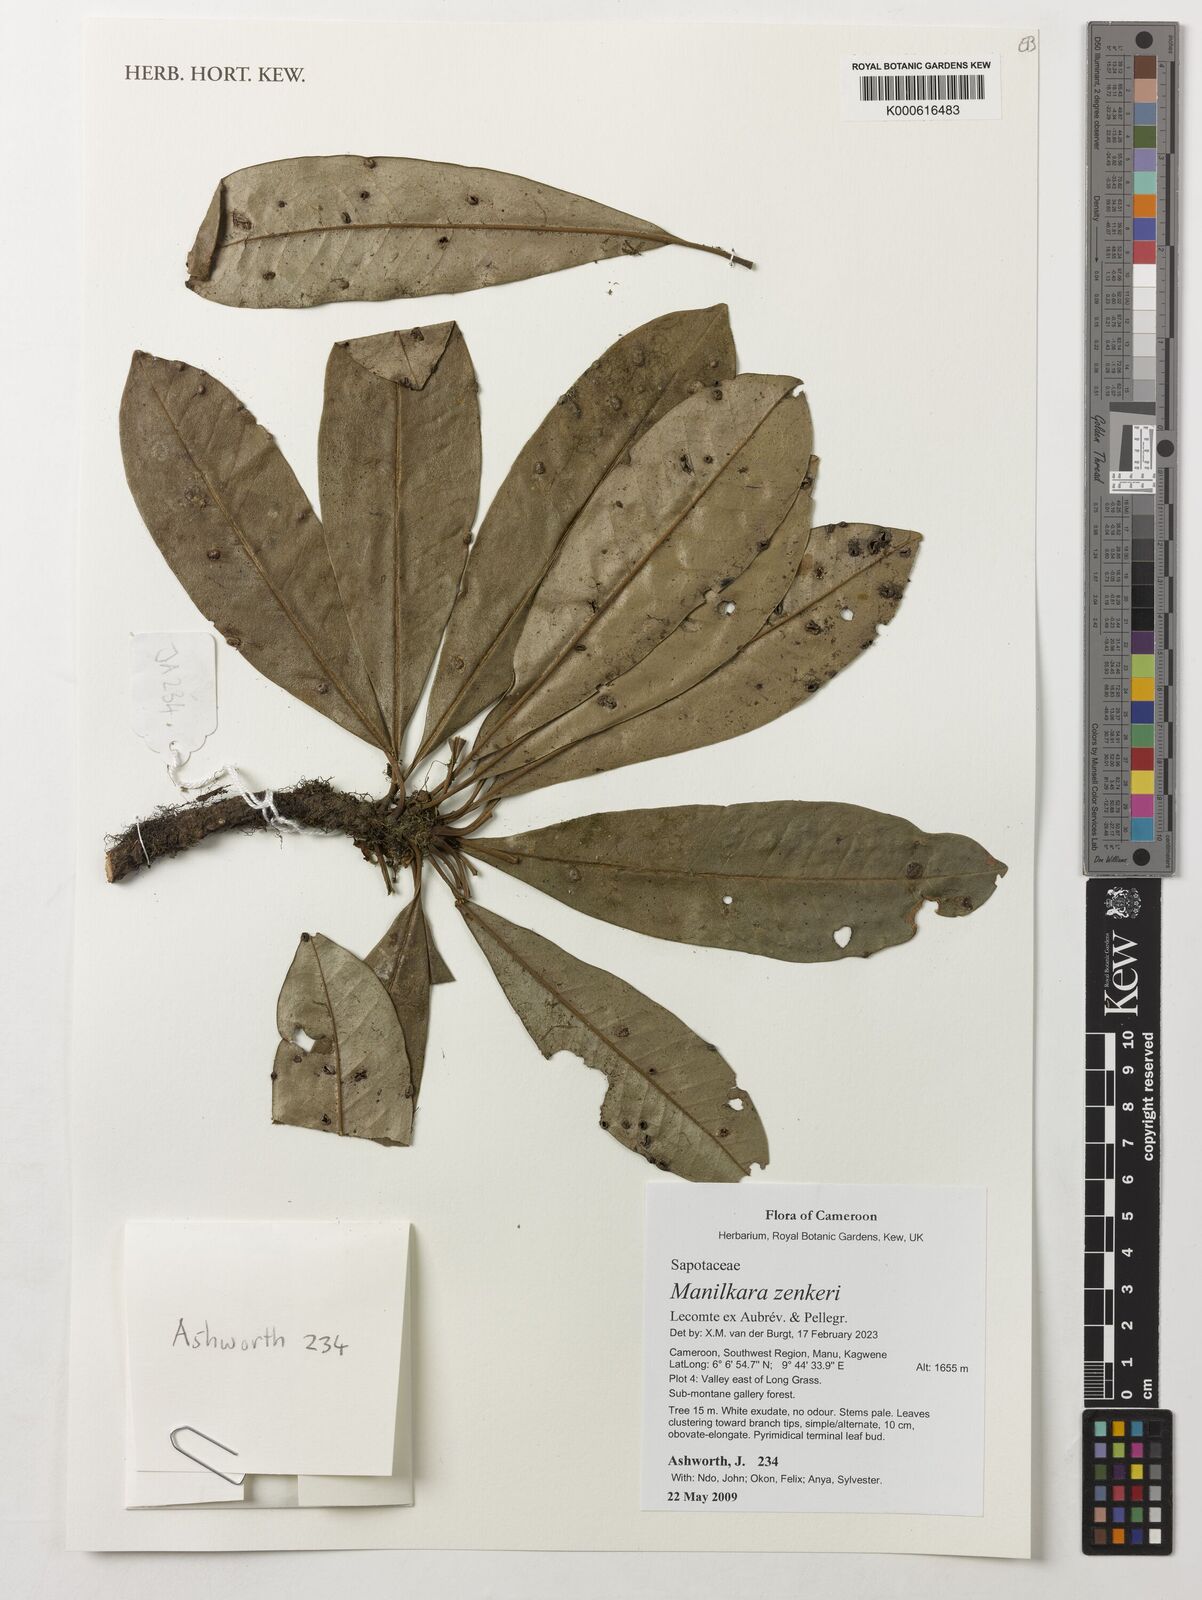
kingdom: Plantae
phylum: Tracheophyta
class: Magnoliopsida
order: Ericales
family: Sapotaceae
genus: Manilkara
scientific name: Manilkara zenkeri
